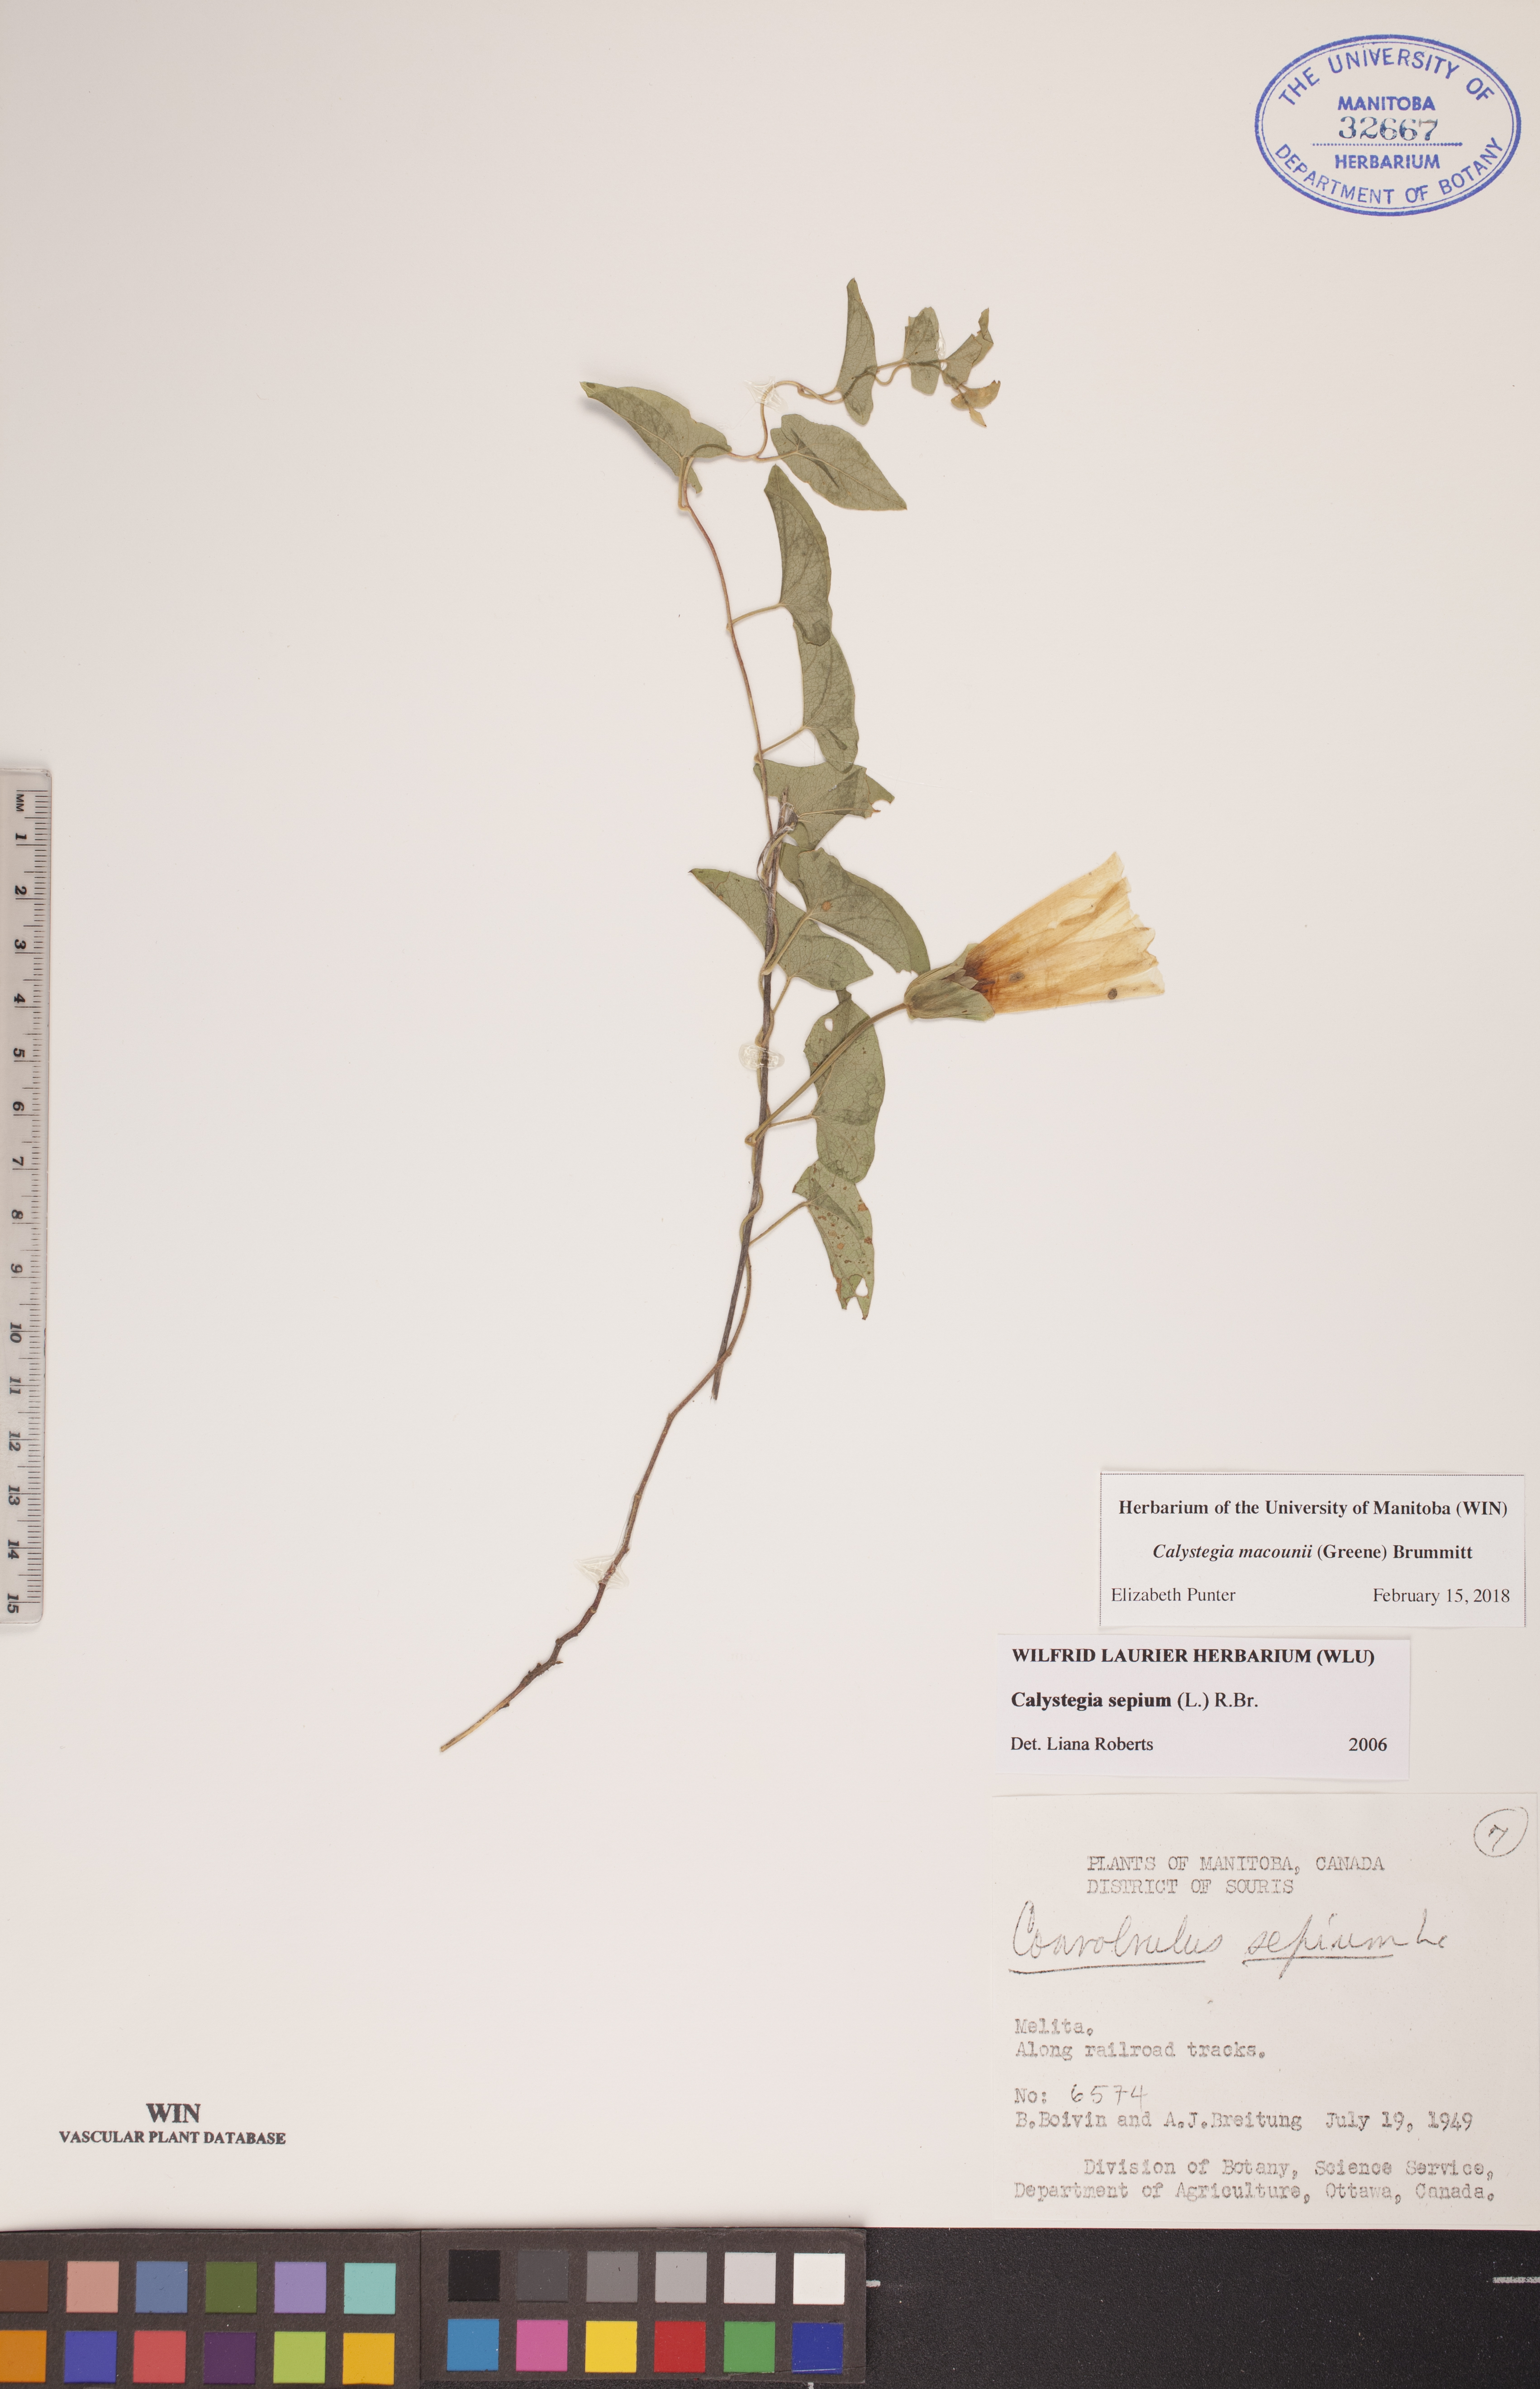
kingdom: Plantae
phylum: Tracheophyta
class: Magnoliopsida
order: Solanales
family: Convolvulaceae
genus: Calystegia
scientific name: Calystegia macounii
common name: Macoun's bindweed
